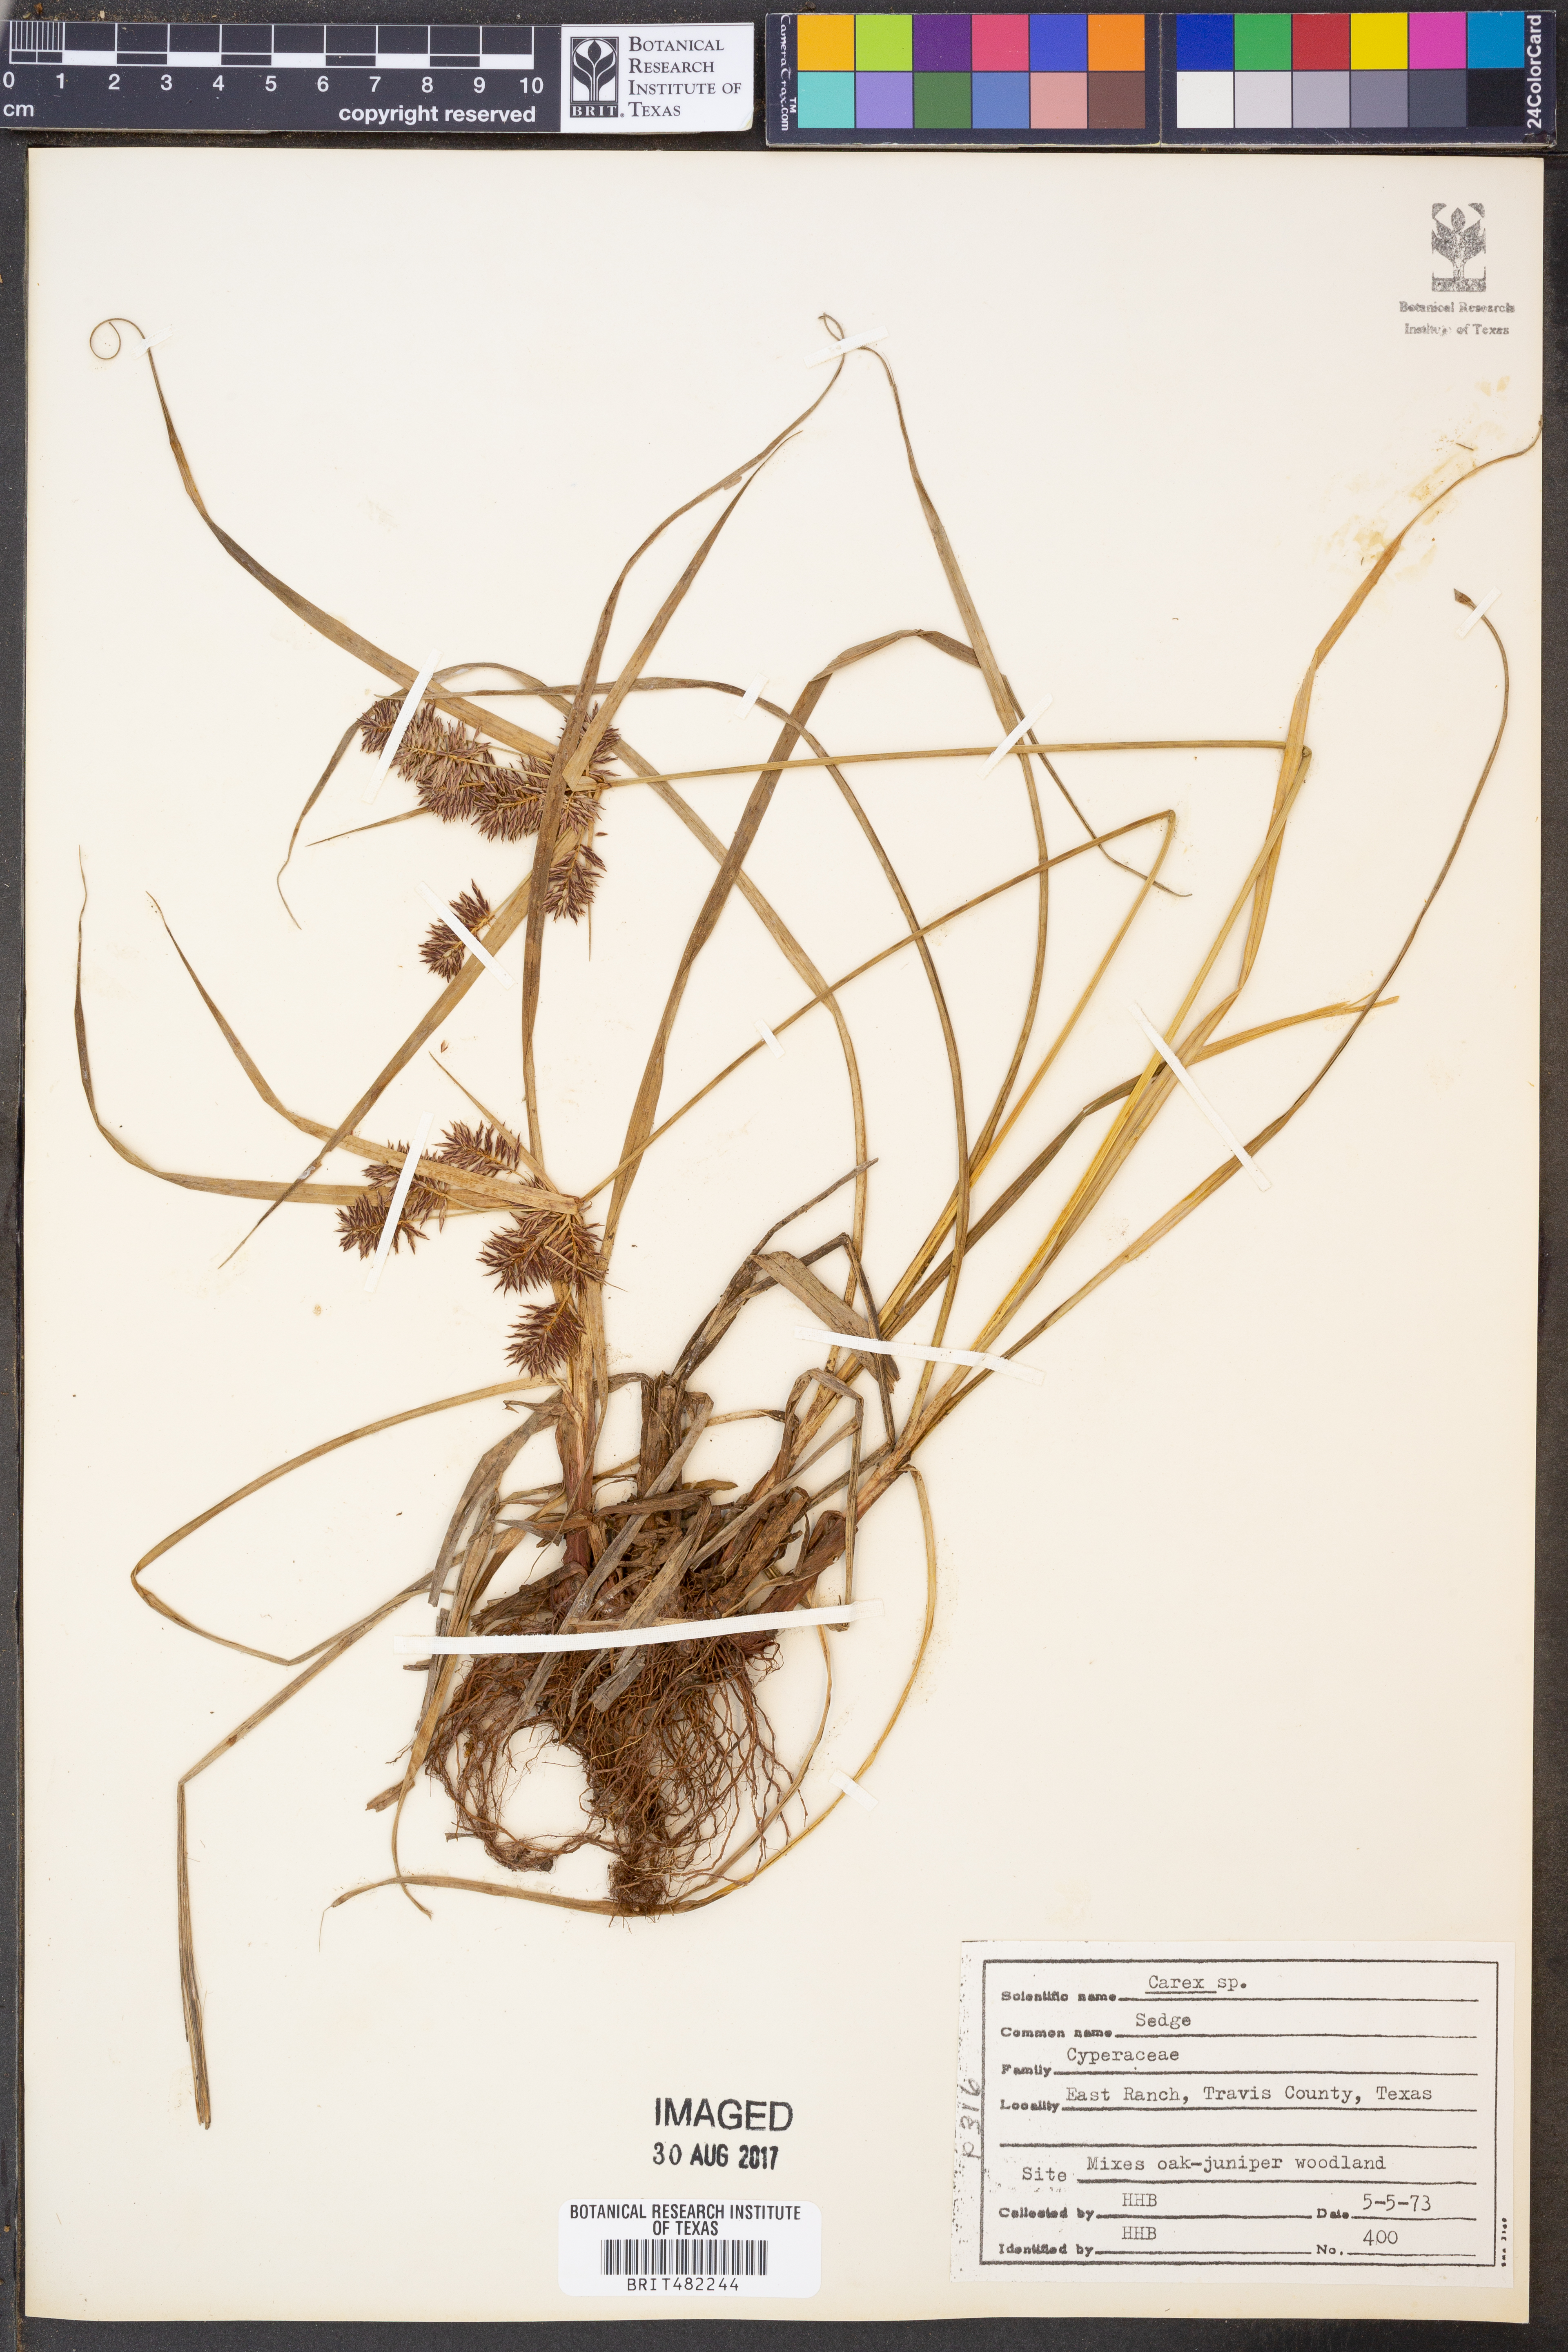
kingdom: Plantae
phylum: Tracheophyta
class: Liliopsida
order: Poales
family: Cyperaceae
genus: Carex
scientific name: Carex
